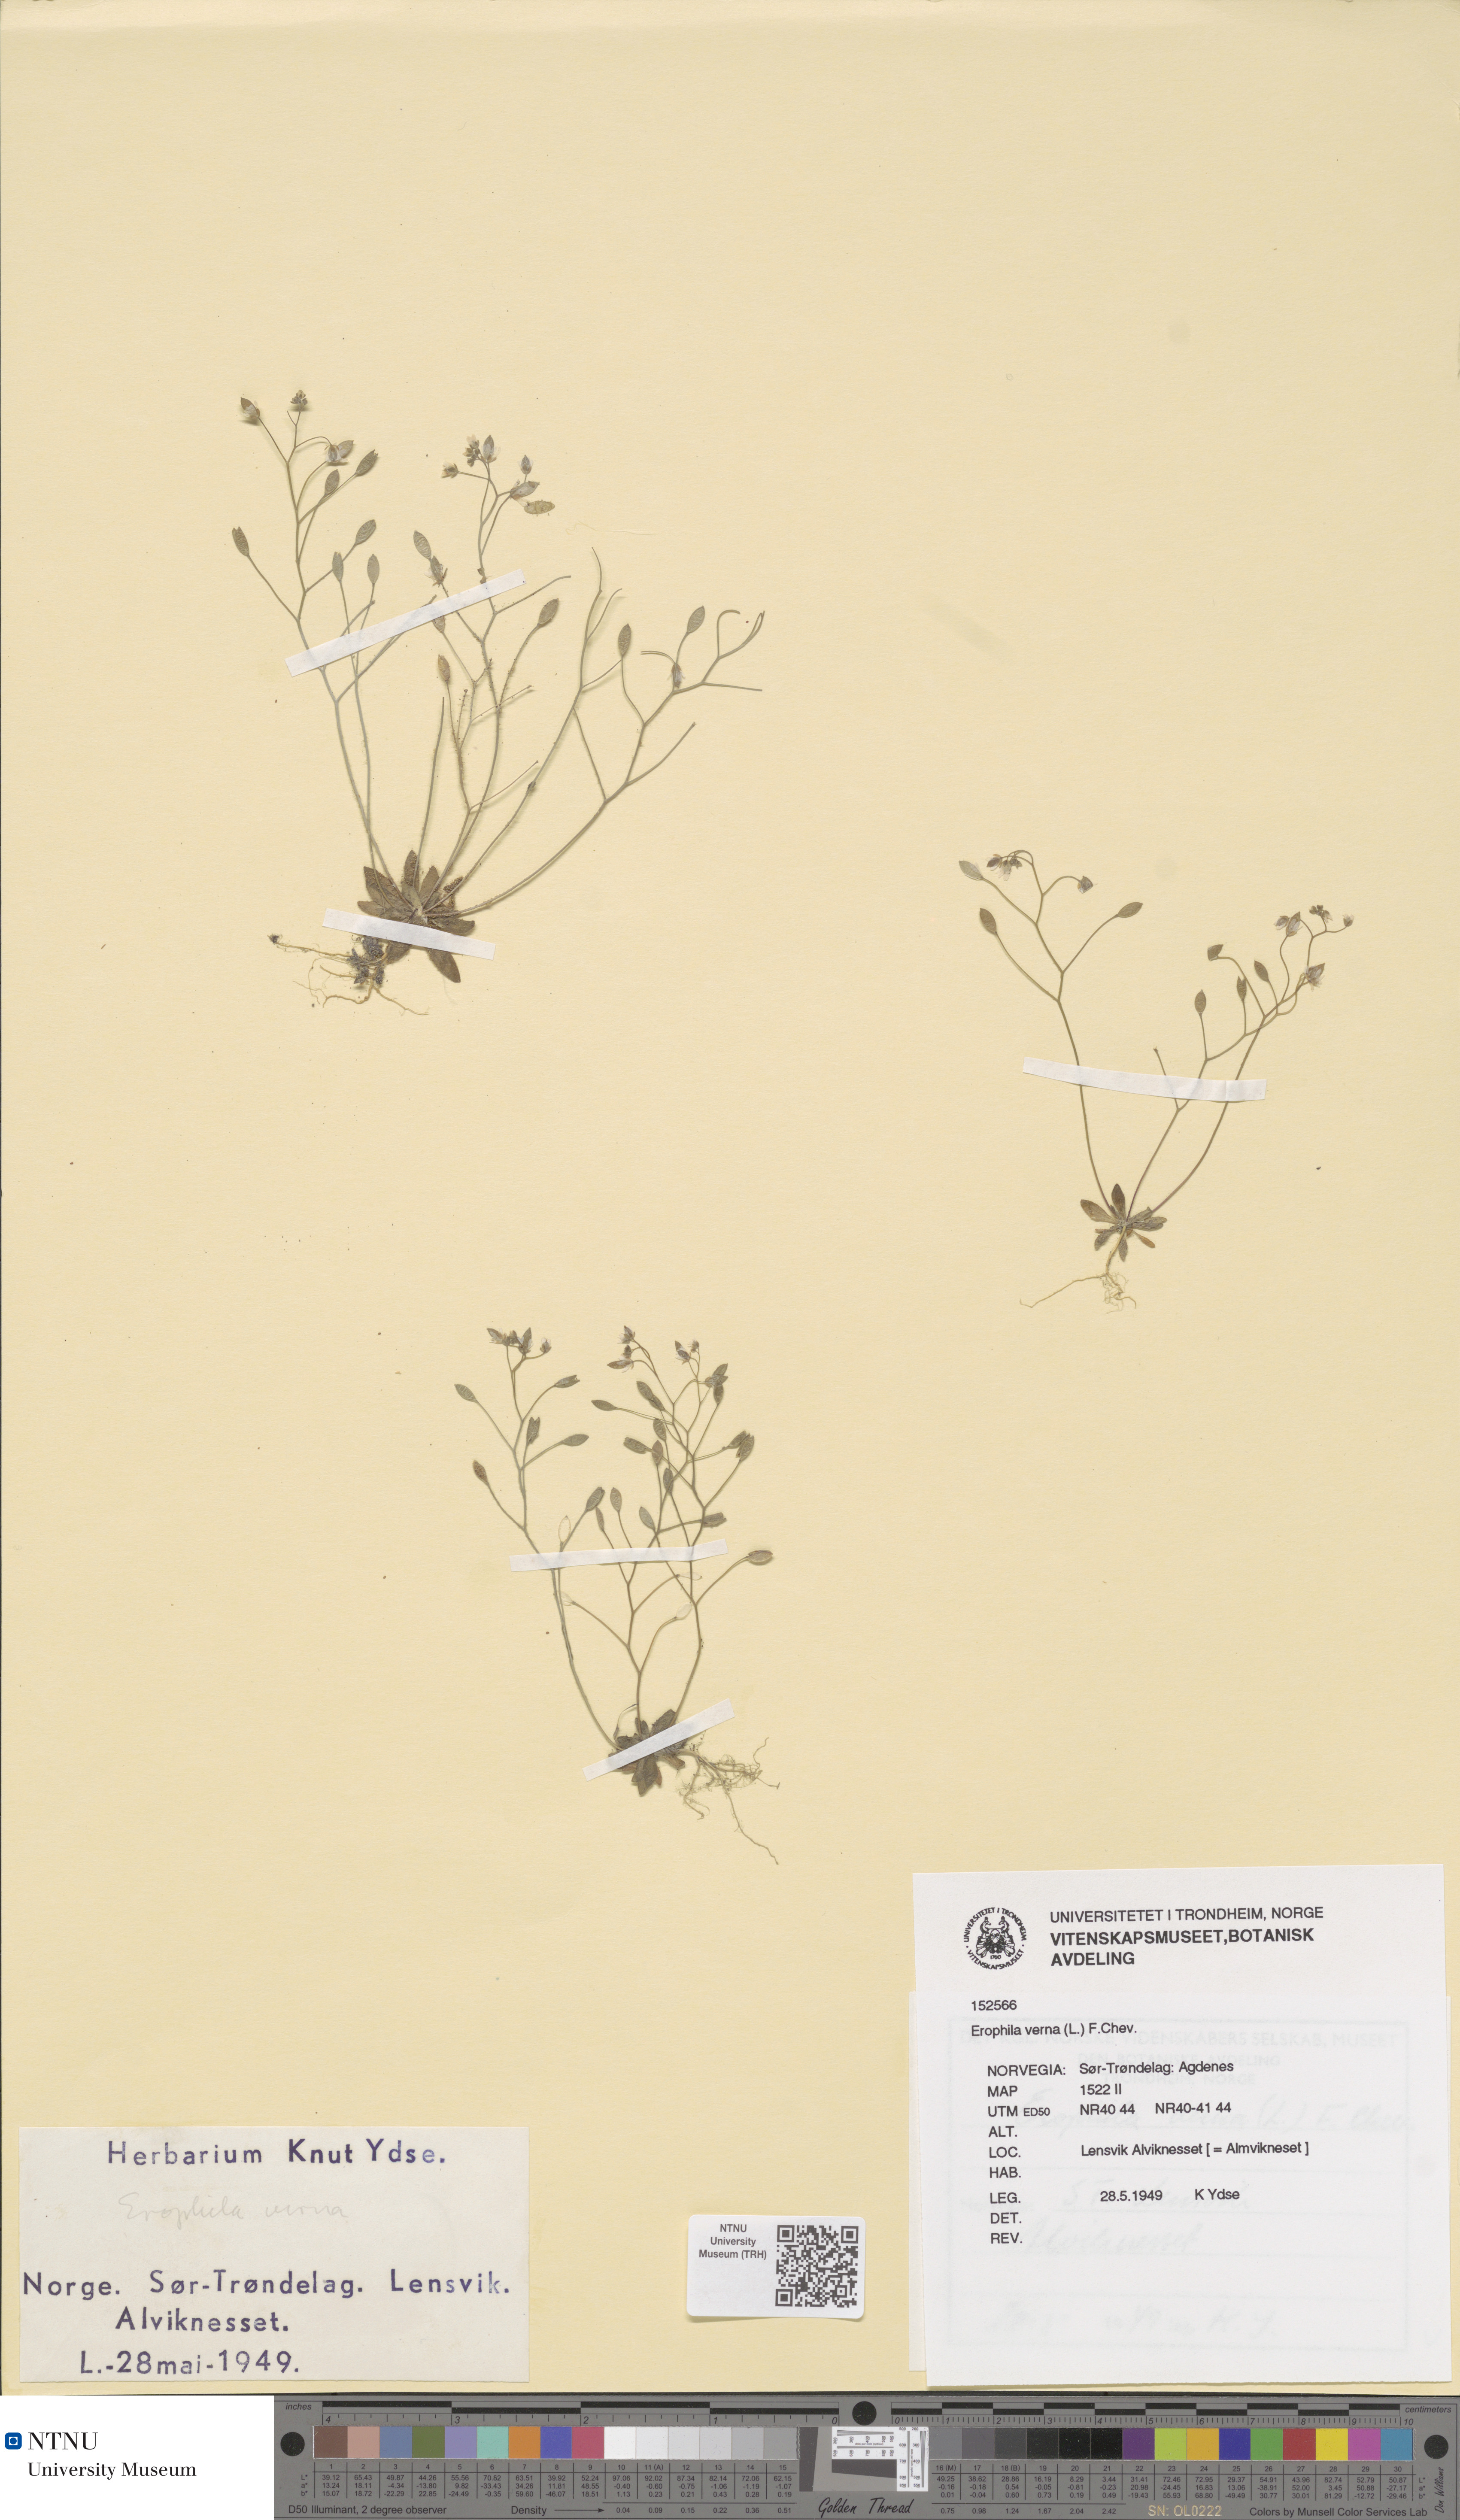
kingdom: Plantae
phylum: Tracheophyta
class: Magnoliopsida
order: Brassicales
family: Brassicaceae
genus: Draba
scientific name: Draba verna
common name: Spring draba
